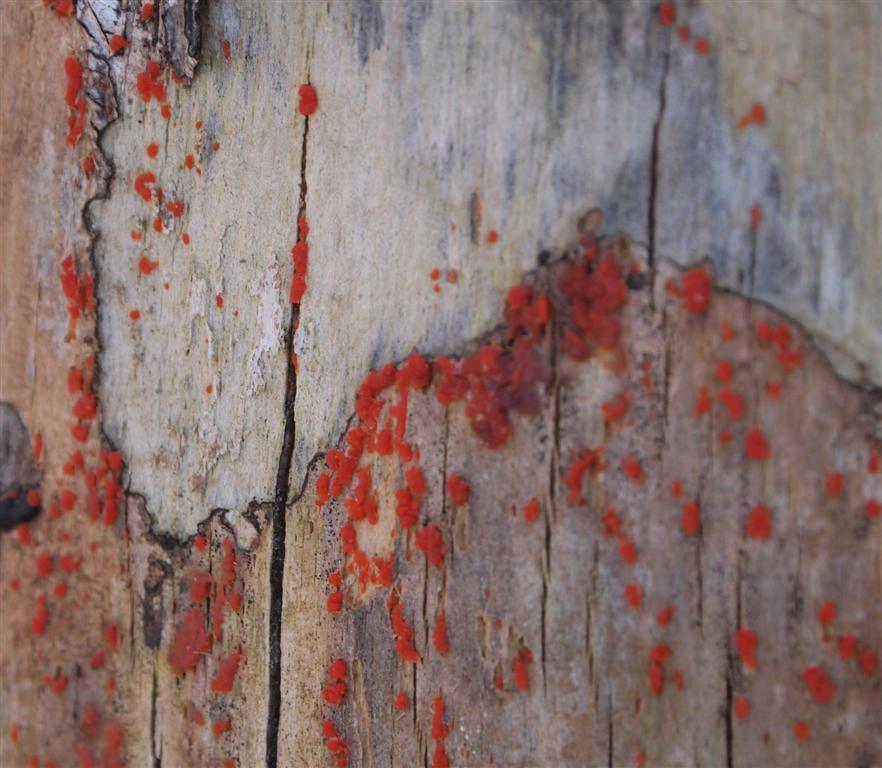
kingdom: Fungi
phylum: Basidiomycota
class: Dacrymycetes
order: Dacrymycetales
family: Dacrymycetaceae
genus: Dacrymyces
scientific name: Dacrymyces stillatus
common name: almindelig tåresvamp
